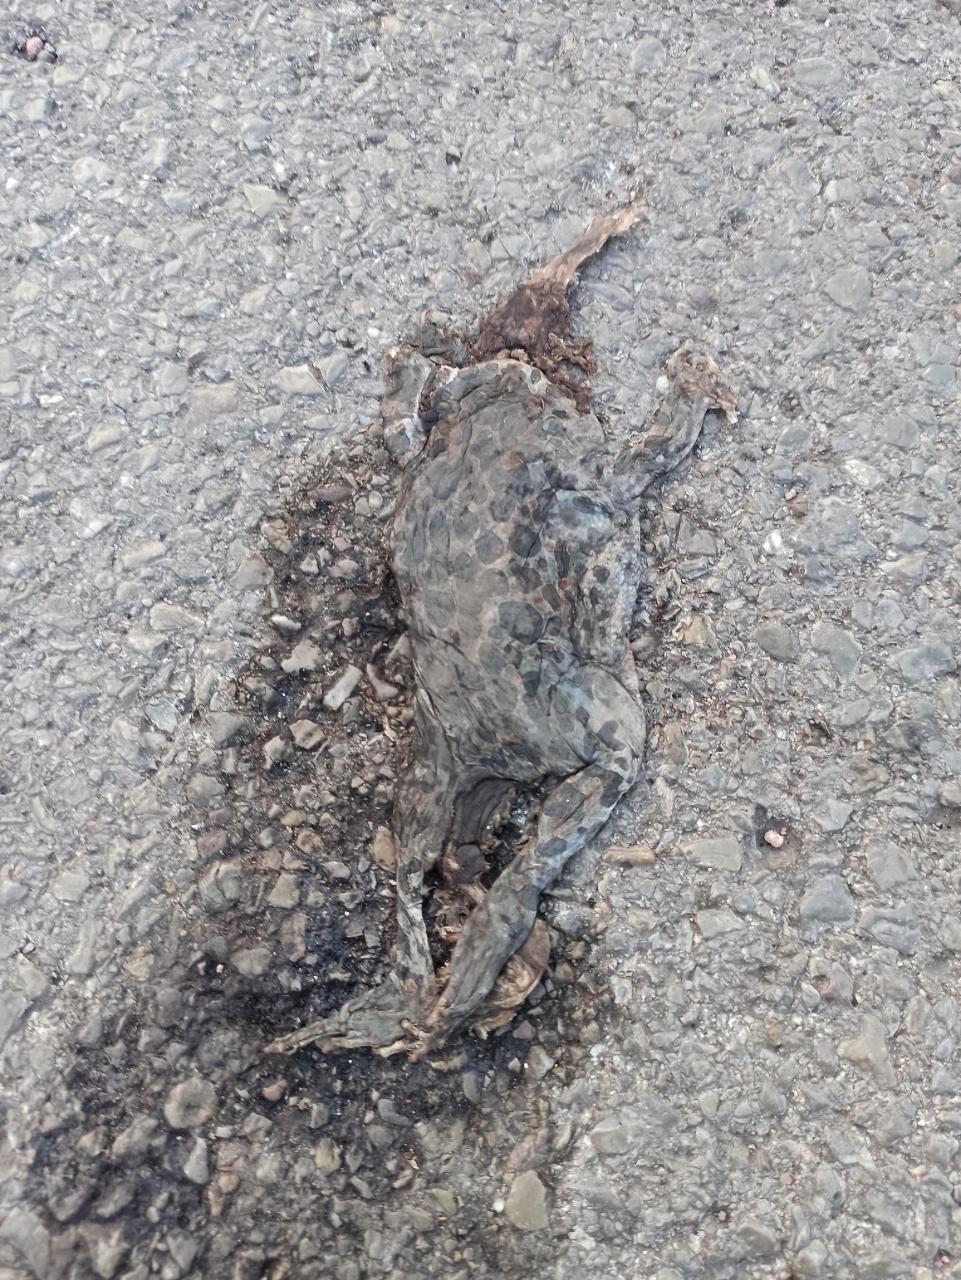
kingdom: Animalia
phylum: Chordata
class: Amphibia
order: Anura
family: Bufonidae
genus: Bufotes
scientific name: Bufotes viridis
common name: European green toad
